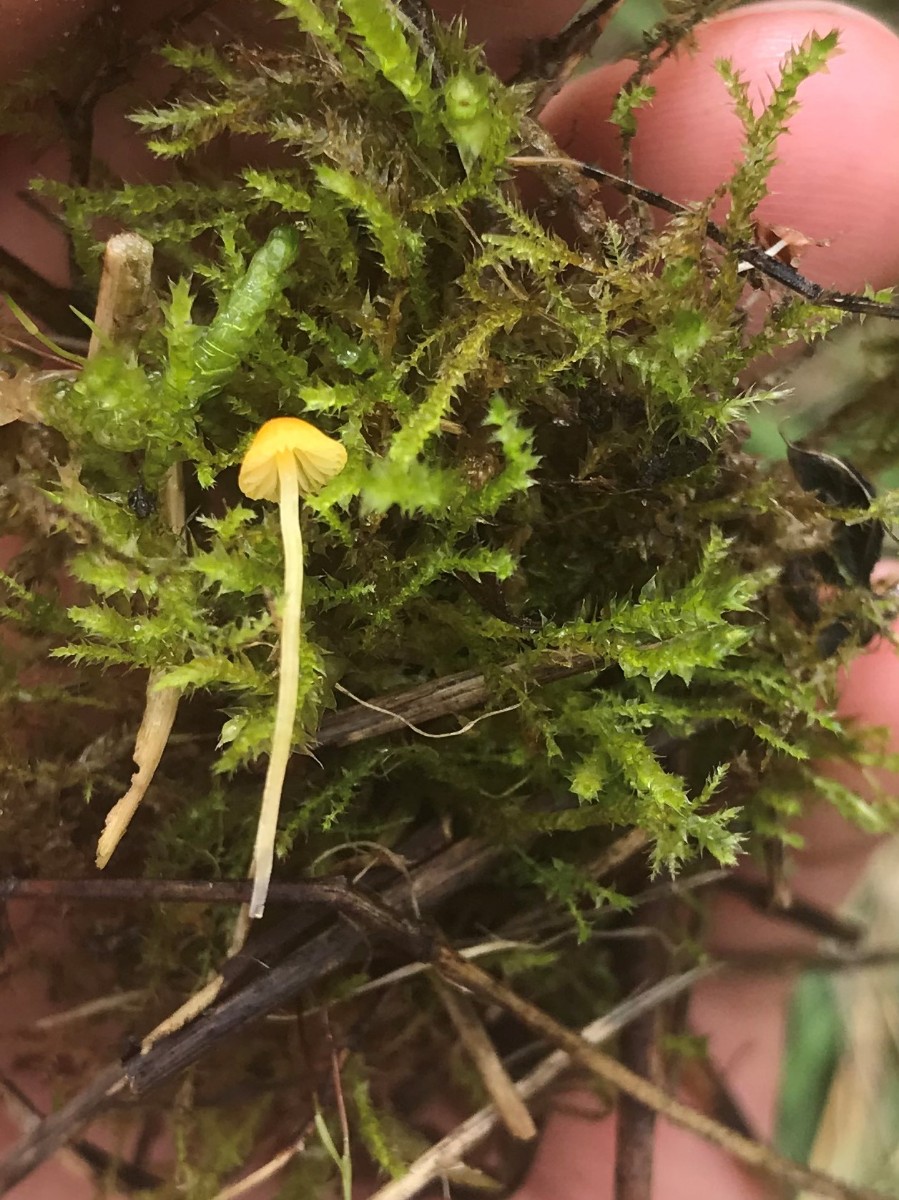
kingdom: Fungi
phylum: Basidiomycota
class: Agaricomycetes
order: Agaricales
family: Mycenaceae
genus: Mycena
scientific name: Mycena acicula
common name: orange huesvamp
